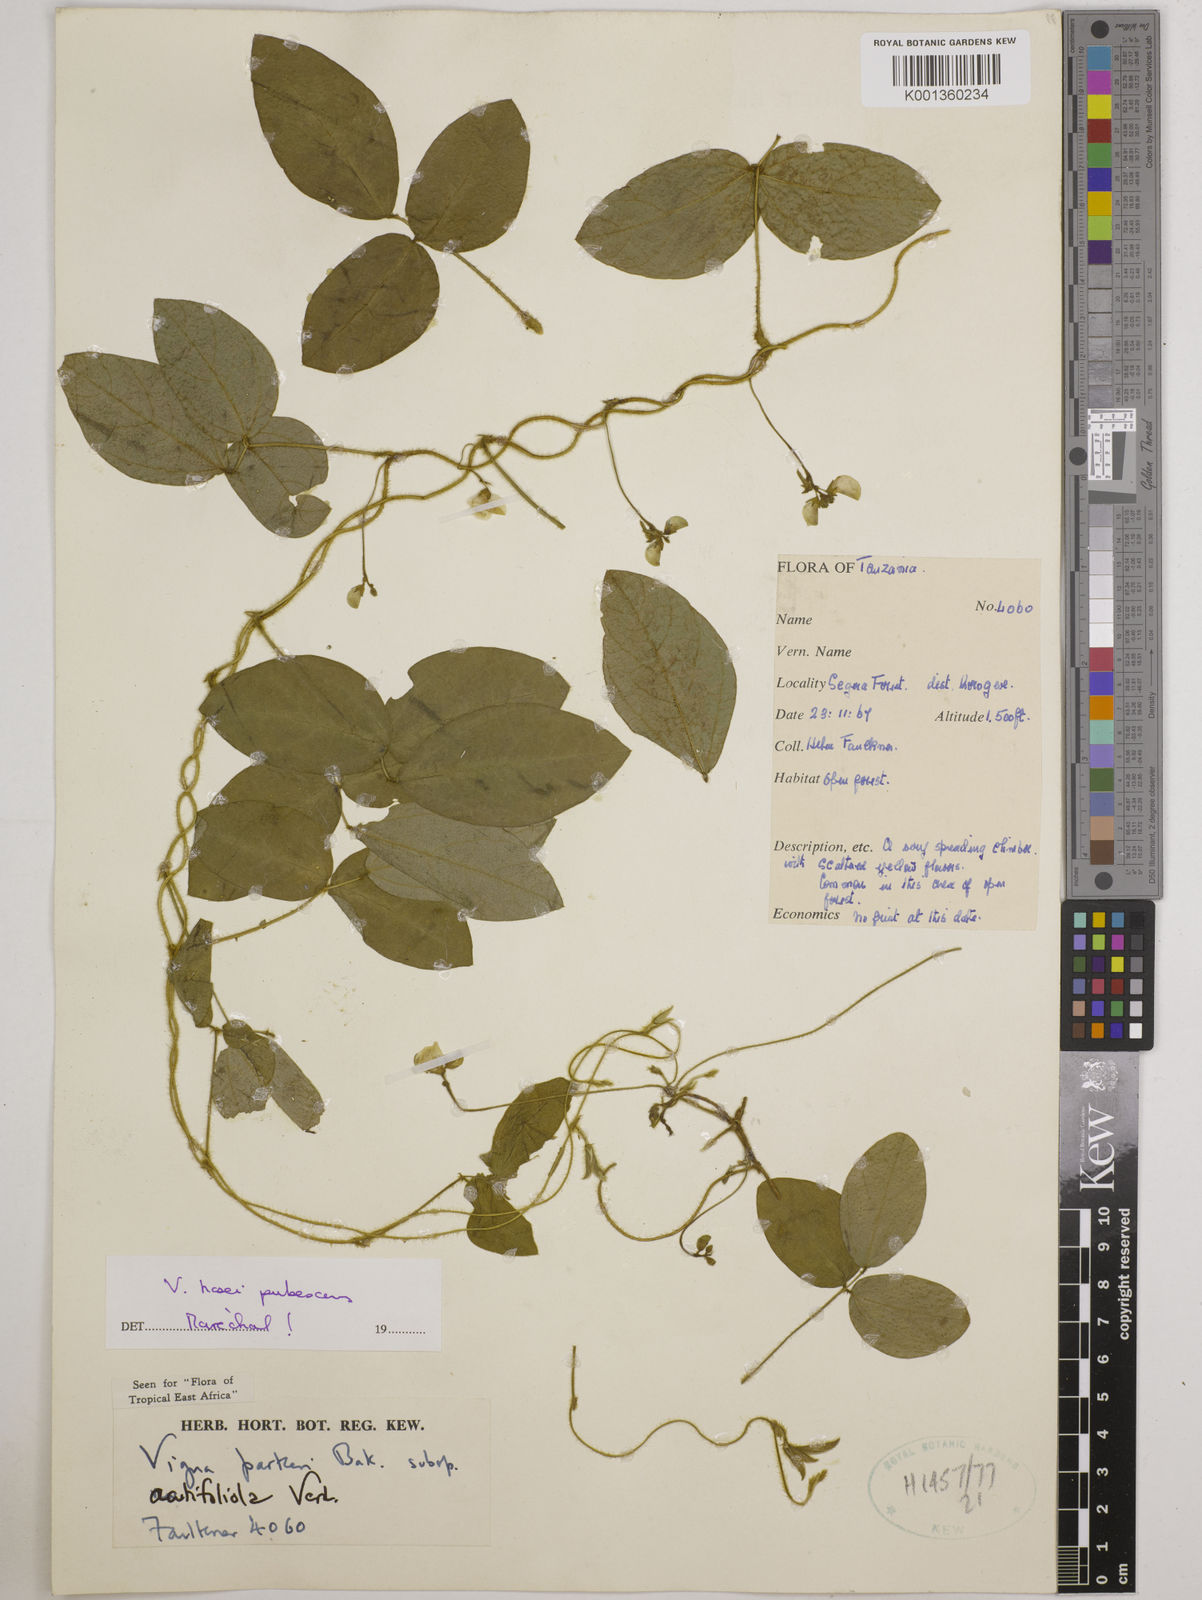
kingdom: Plantae
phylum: Tracheophyta
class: Magnoliopsida
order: Fabales
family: Fabaceae
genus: Vigna
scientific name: Vigna hosei
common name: Sarawak-bean
